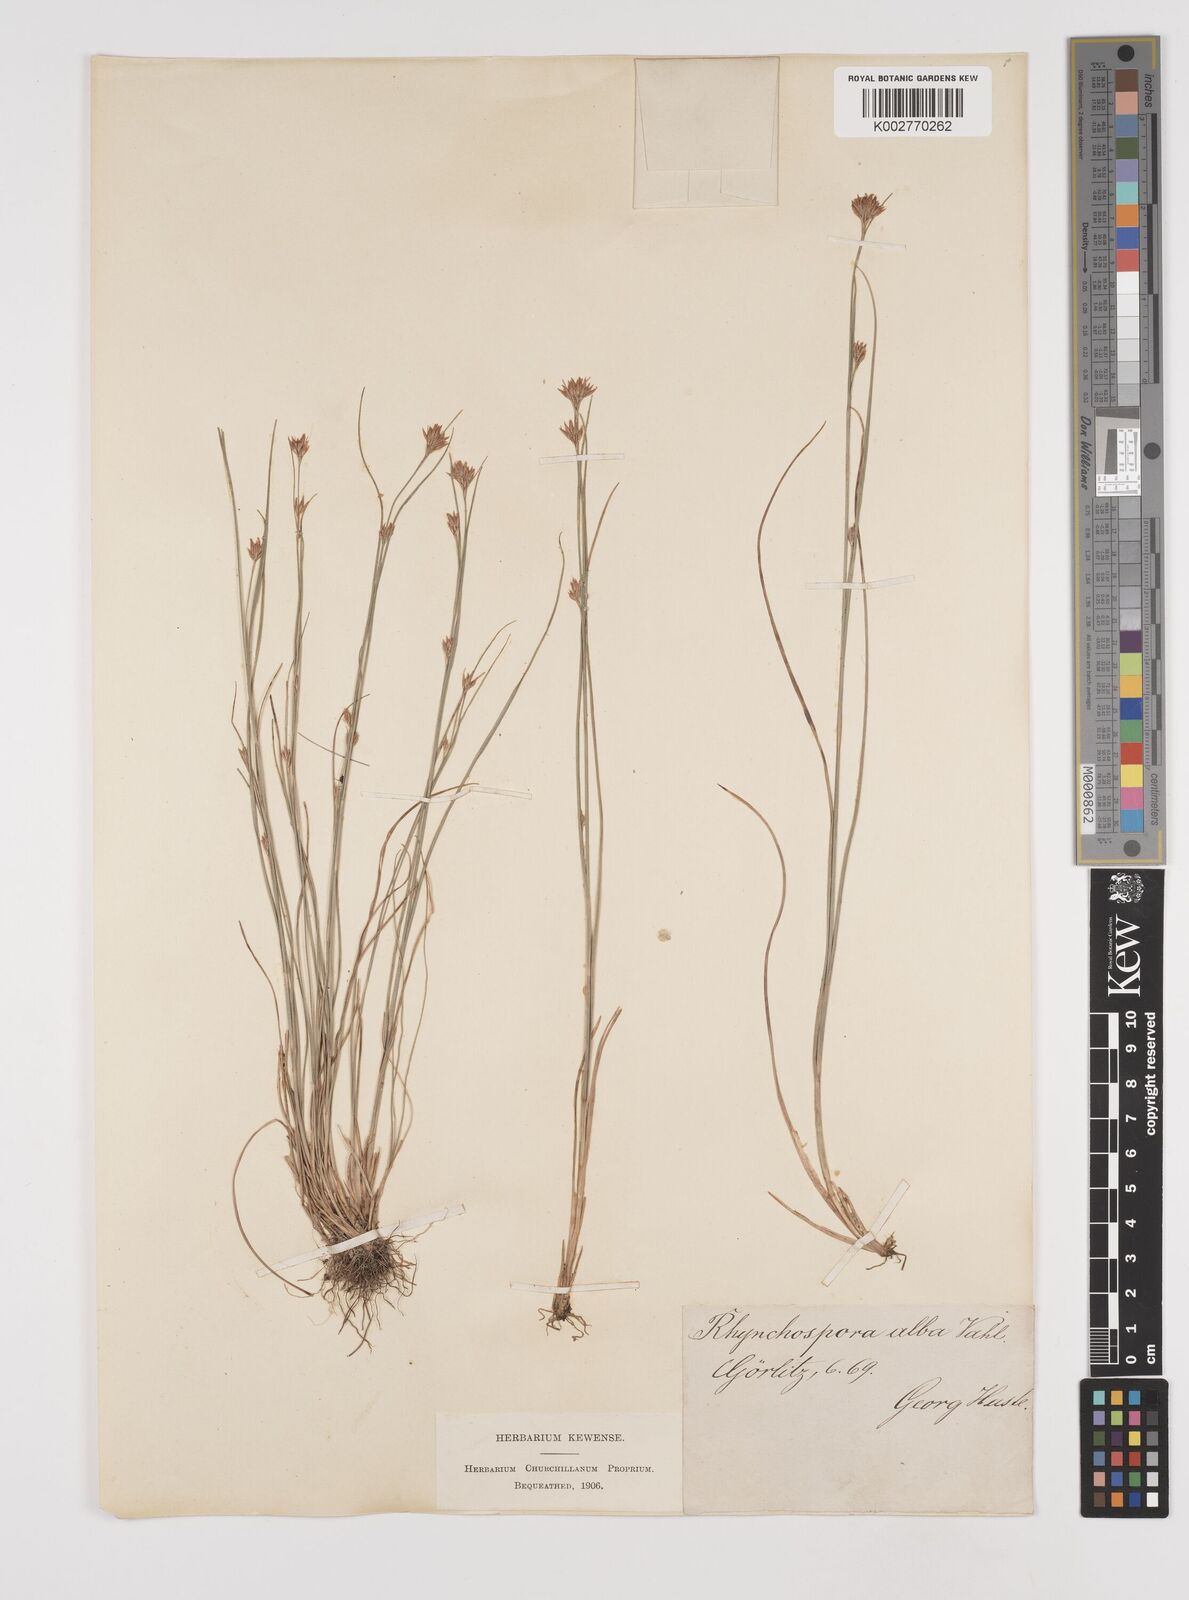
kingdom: Plantae
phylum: Tracheophyta
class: Liliopsida
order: Poales
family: Cyperaceae
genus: Rhynchospora
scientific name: Rhynchospora alba
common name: White beak-sedge
